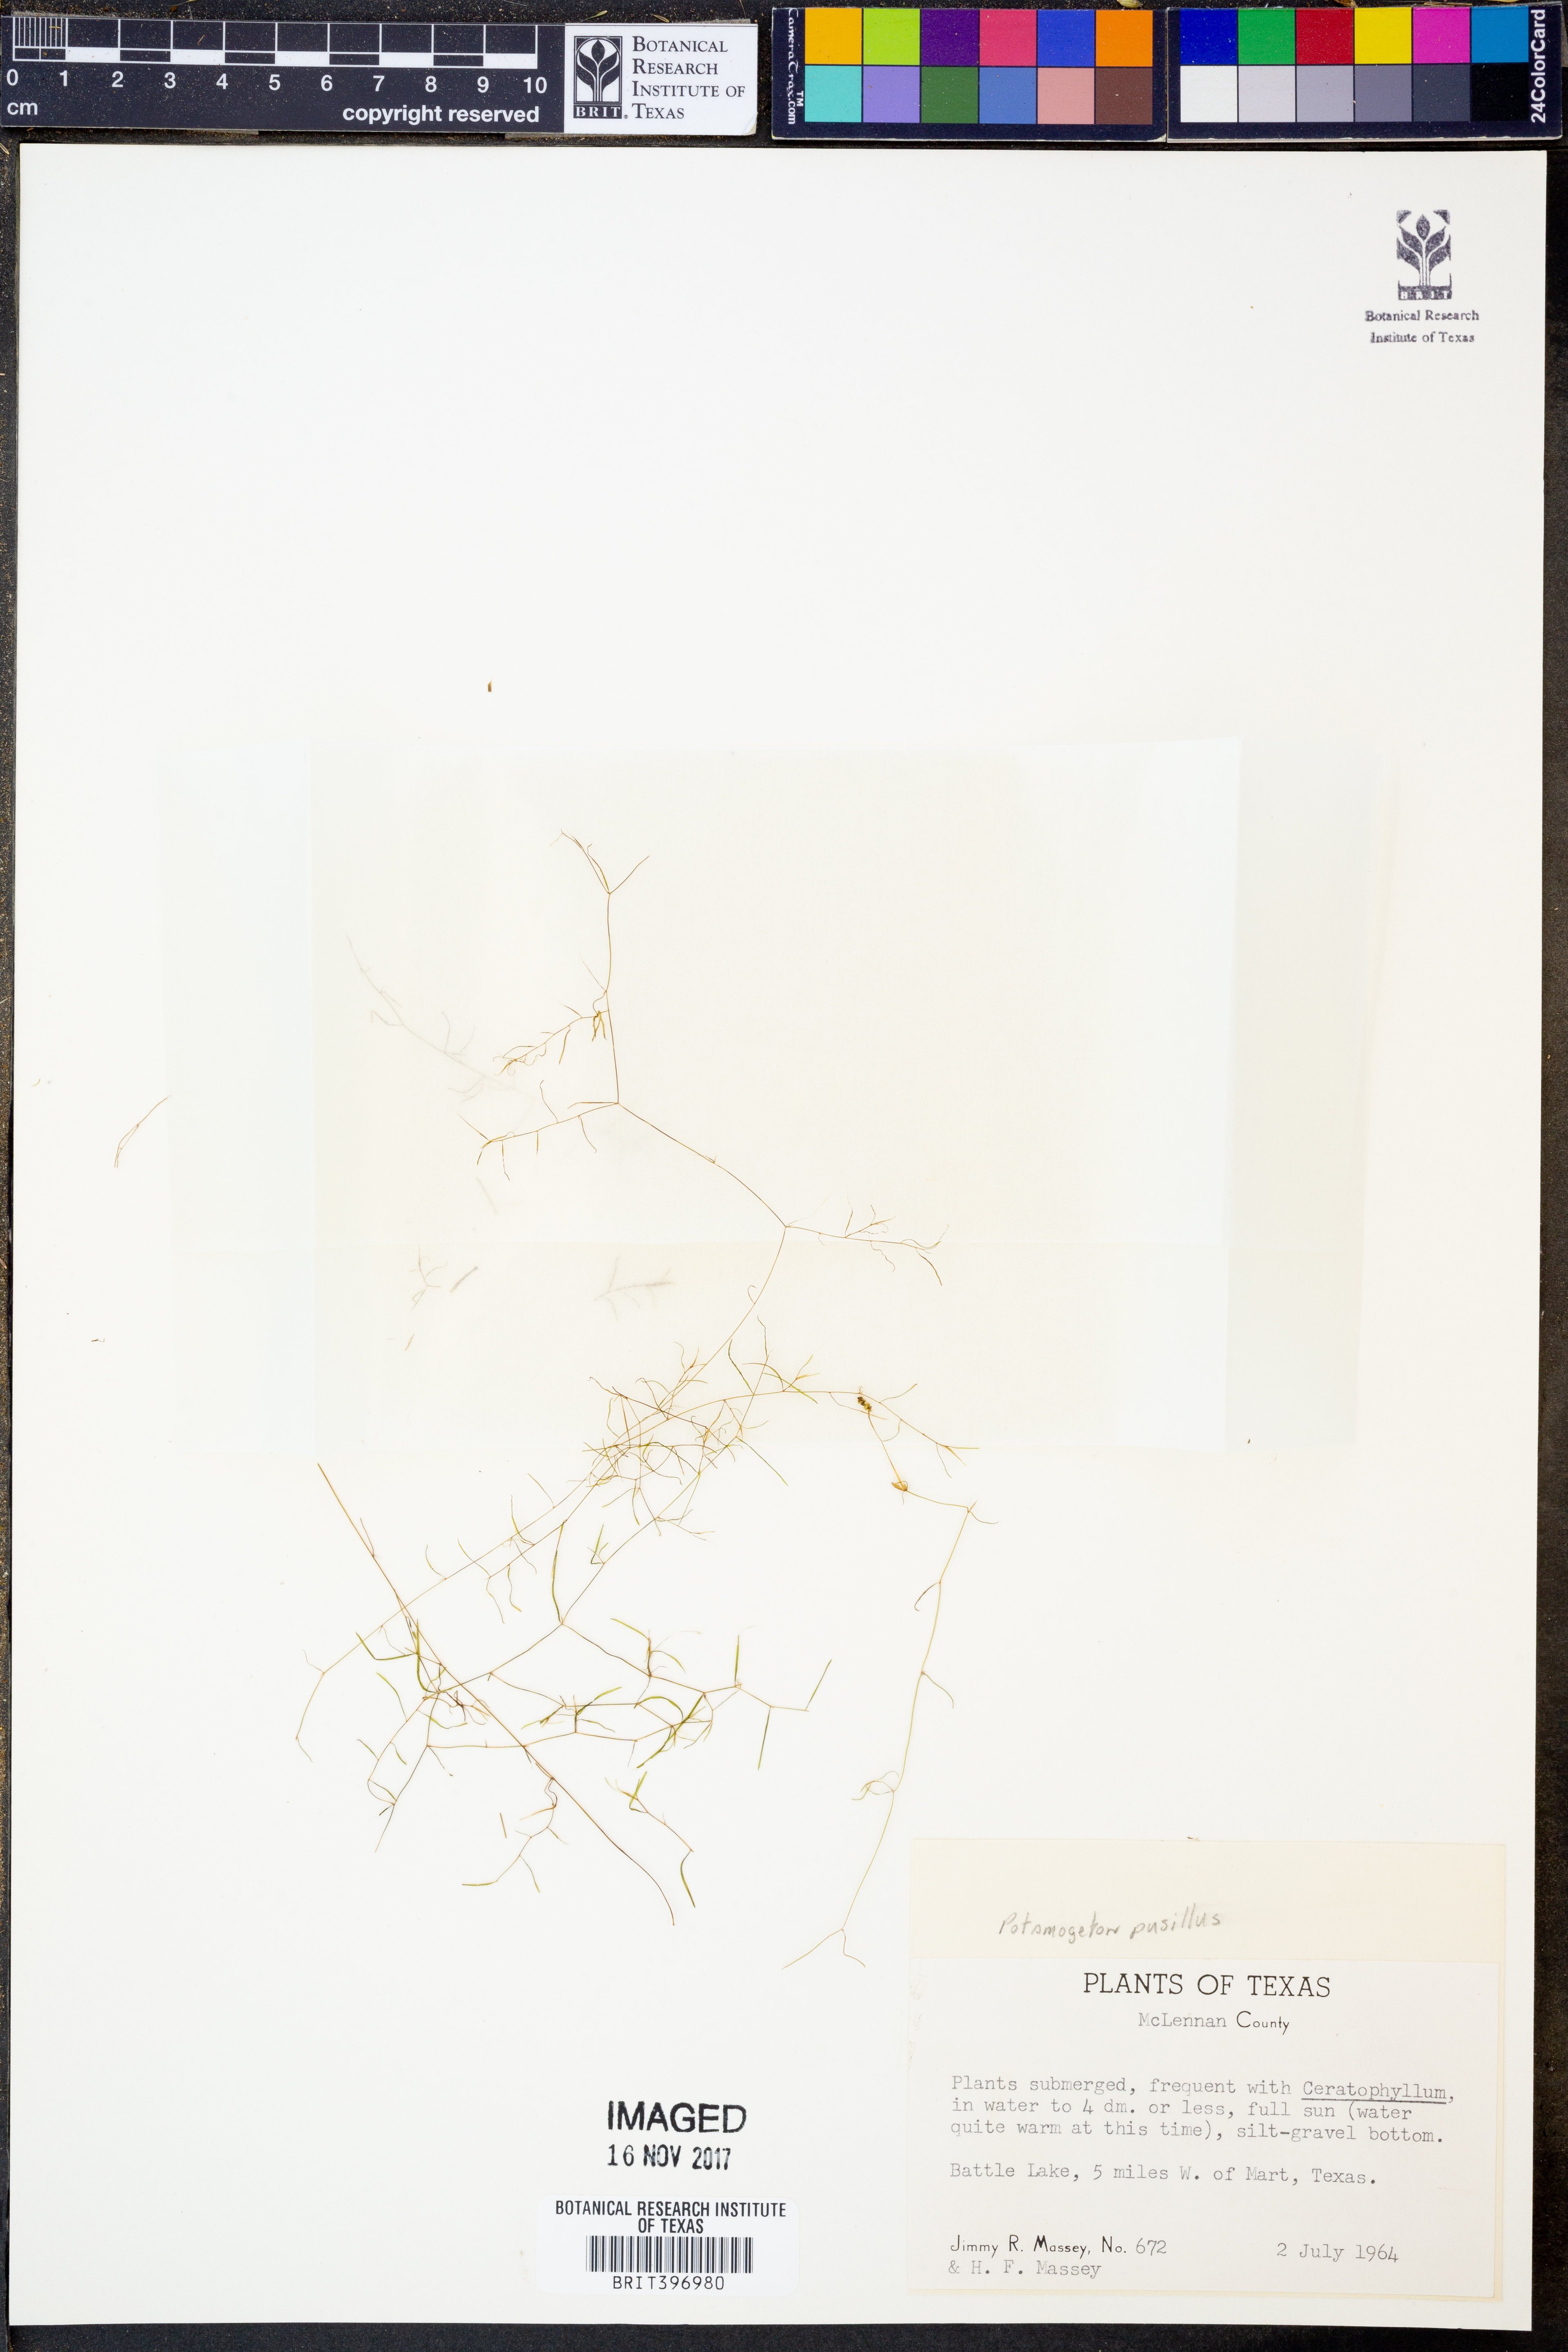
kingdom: Plantae
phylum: Tracheophyta
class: Liliopsida
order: Alismatales
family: Potamogetonaceae
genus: Potamogeton
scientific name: Potamogeton pusillus
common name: Lesser pondweed
